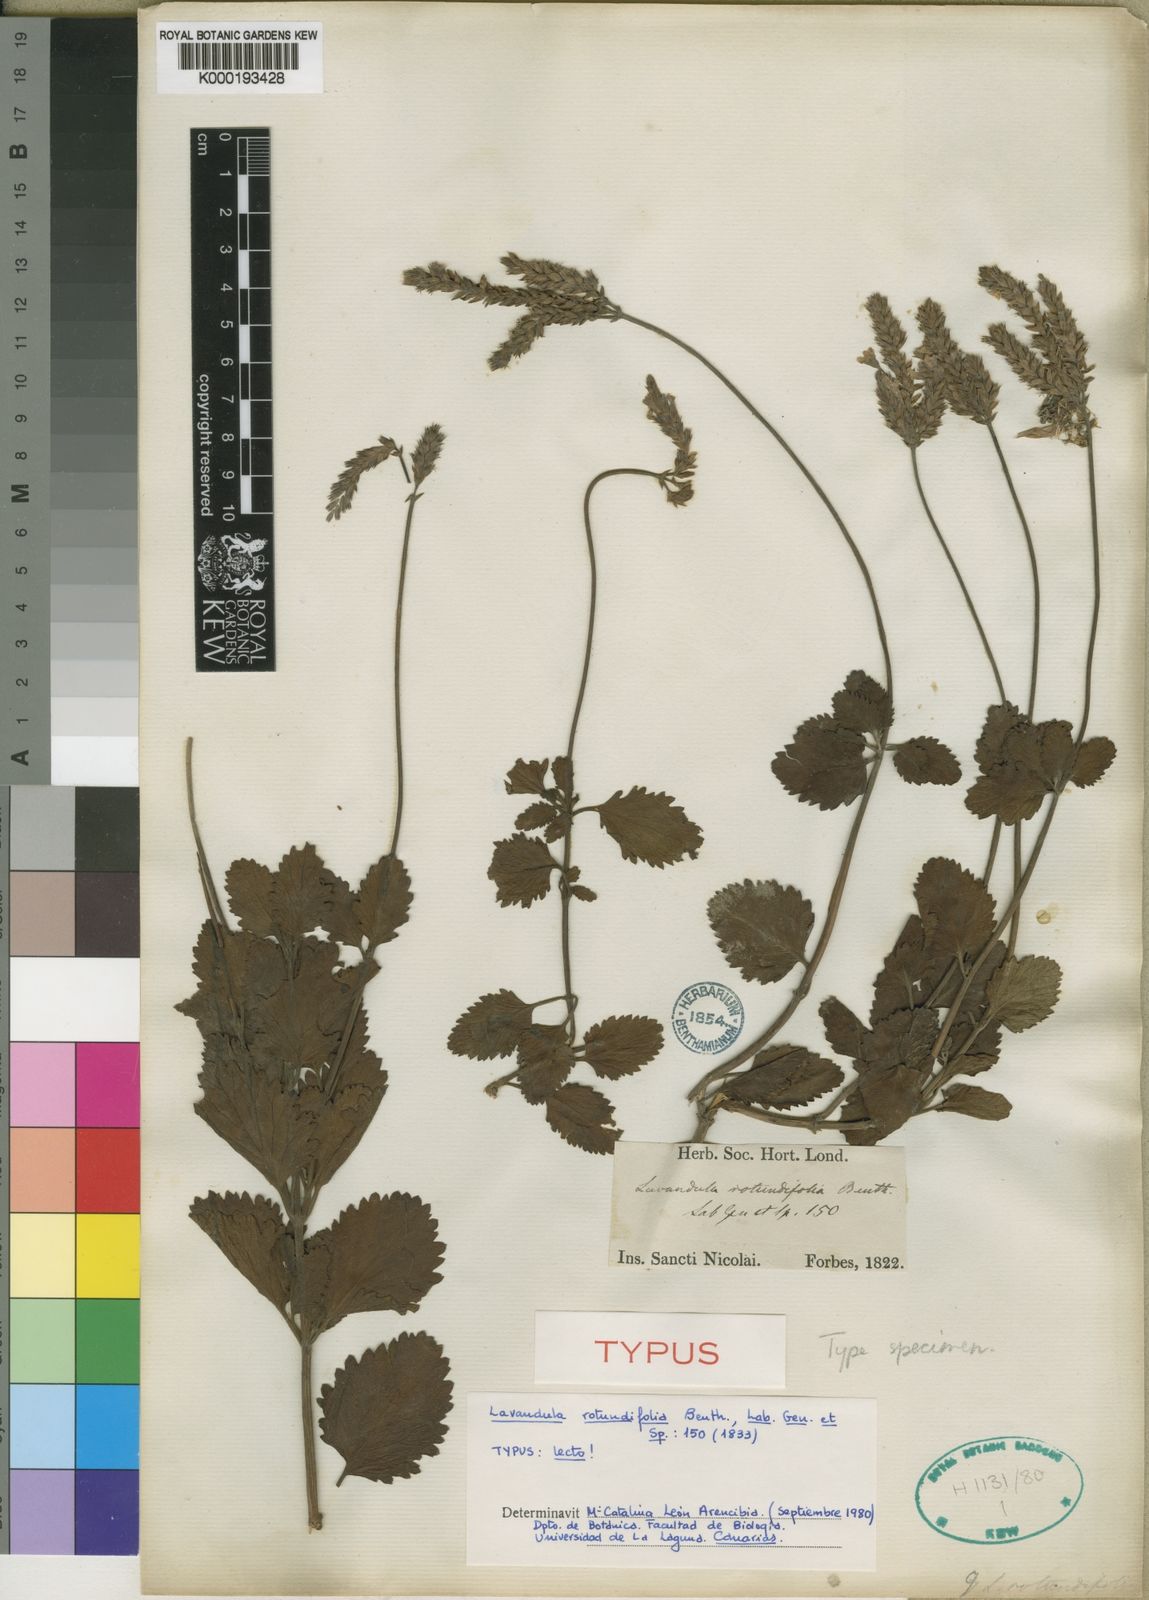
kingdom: Plantae
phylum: Tracheophyta
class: Magnoliopsida
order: Lamiales
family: Lamiaceae
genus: Lavandula
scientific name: Lavandula rotundifolia
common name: Round-leaf lavender
